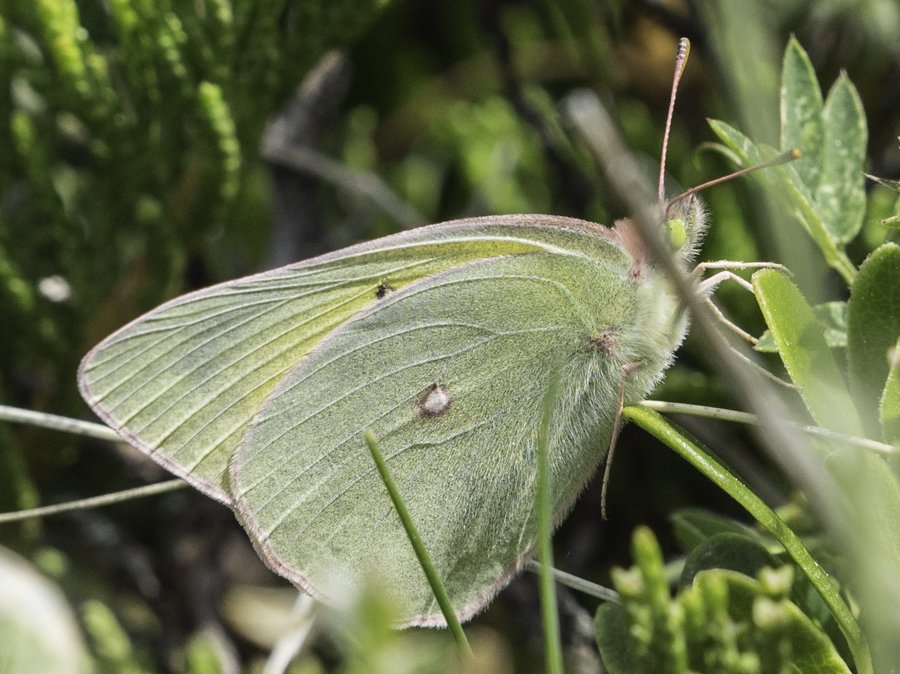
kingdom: Animalia
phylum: Arthropoda
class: Insecta
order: Lepidoptera
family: Pieridae
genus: Colias
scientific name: Colias interior
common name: Pink-edged Sulphur
